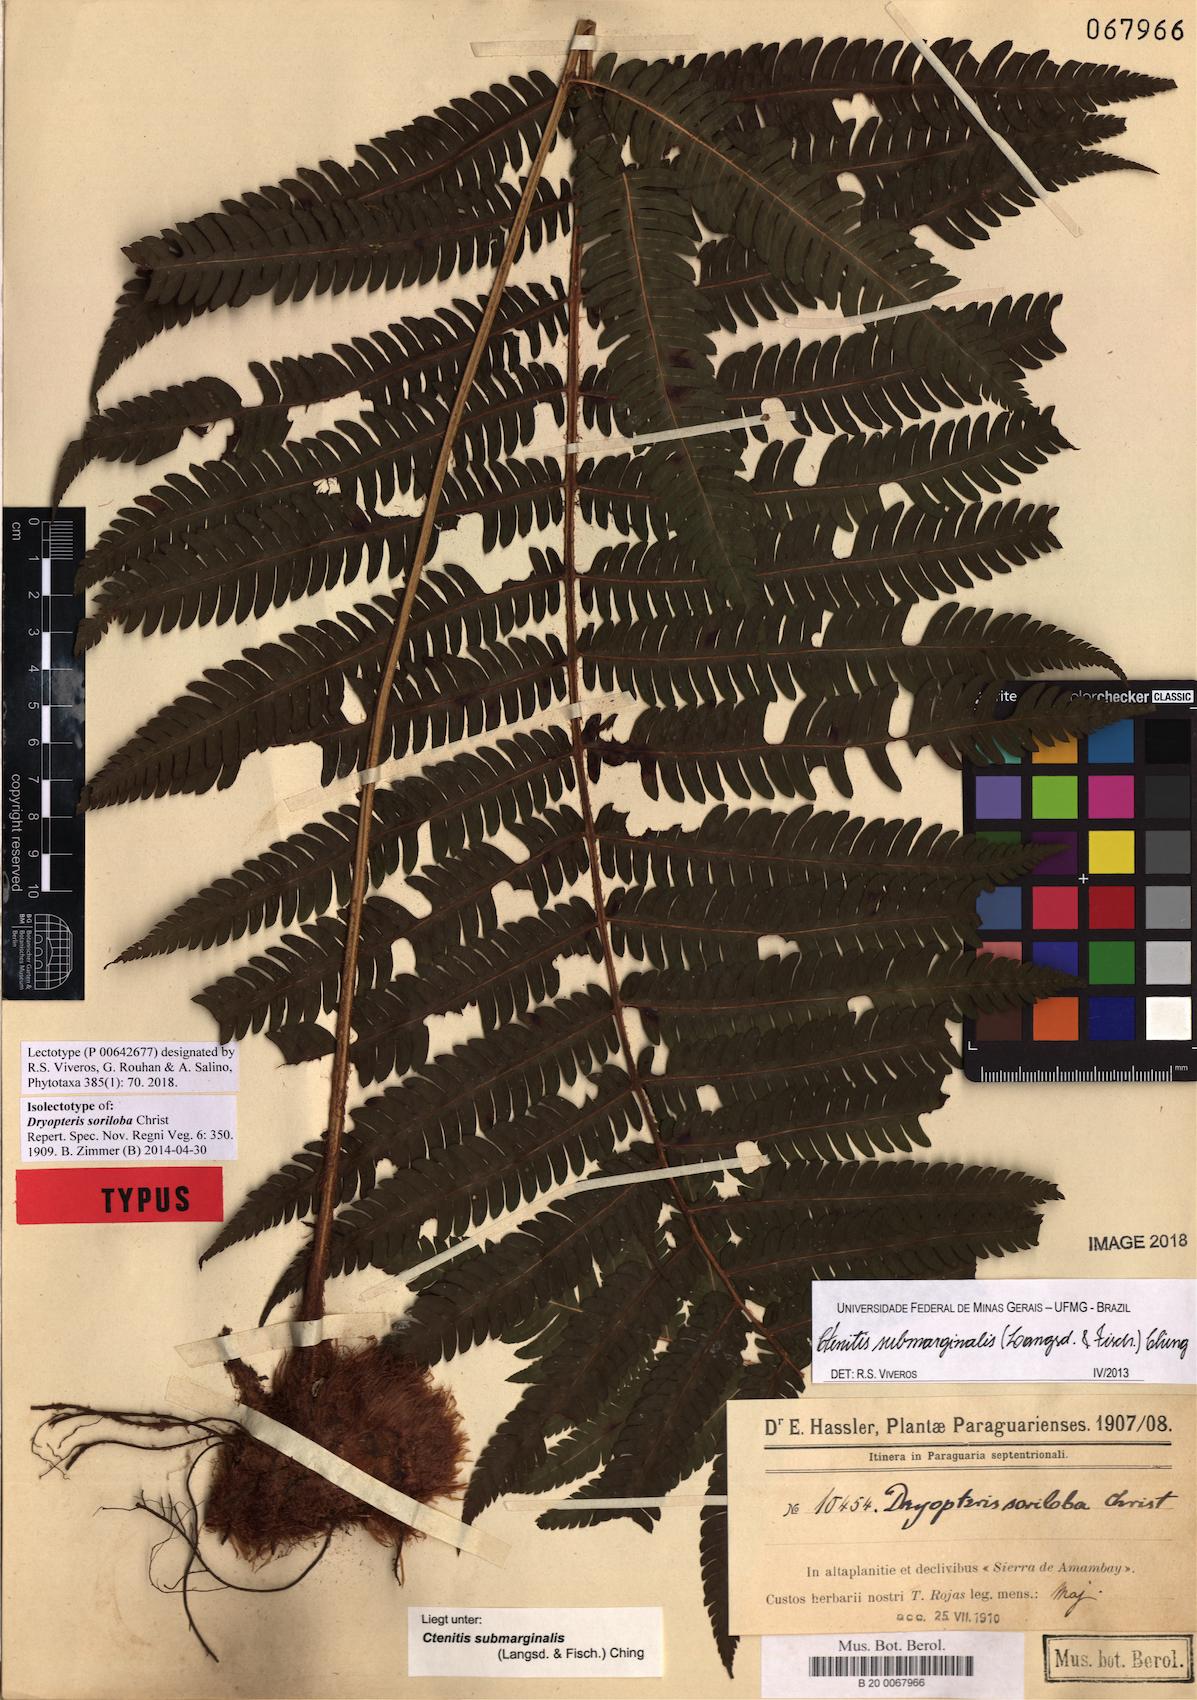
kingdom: Plantae
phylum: Tracheophyta
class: Polypodiopsida
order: Polypodiales
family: Dryopteridaceae
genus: Ctenitis
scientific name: Ctenitis submarginalis
